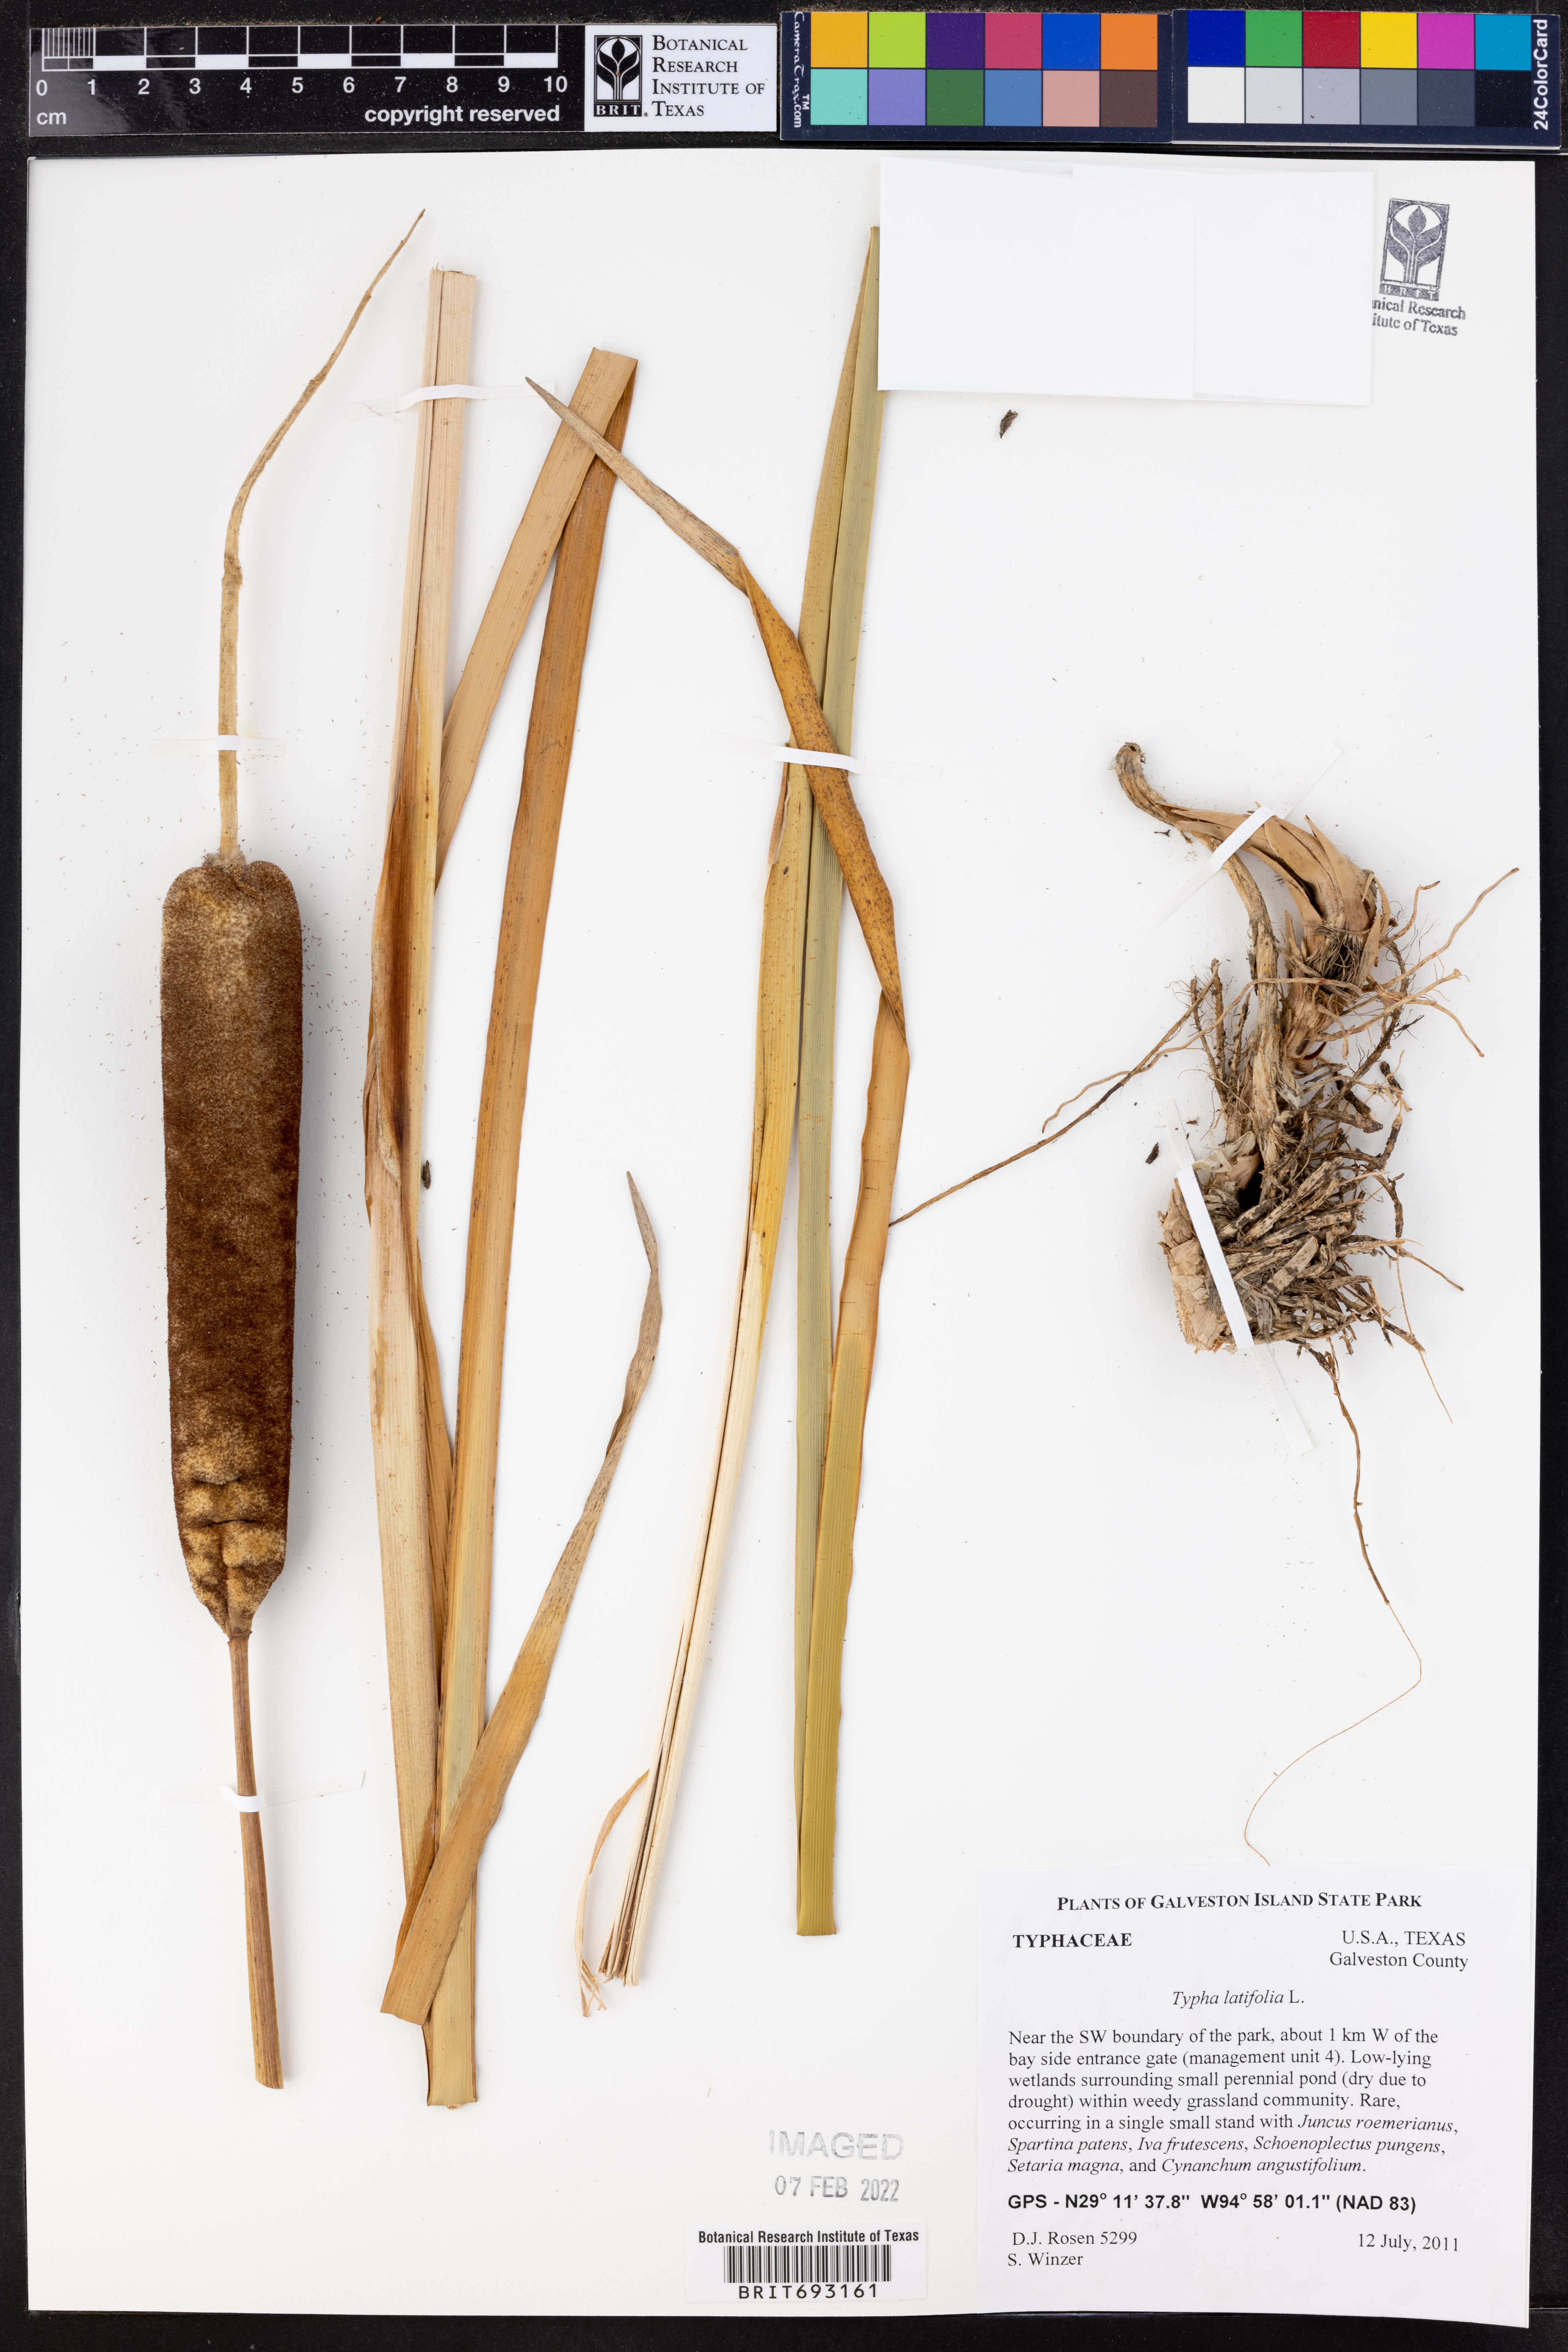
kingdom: Plantae
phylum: Tracheophyta
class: Liliopsida
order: Poales
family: Typhaceae
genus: Typha
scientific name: Typha latifolia
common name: Broadleaf cattail
